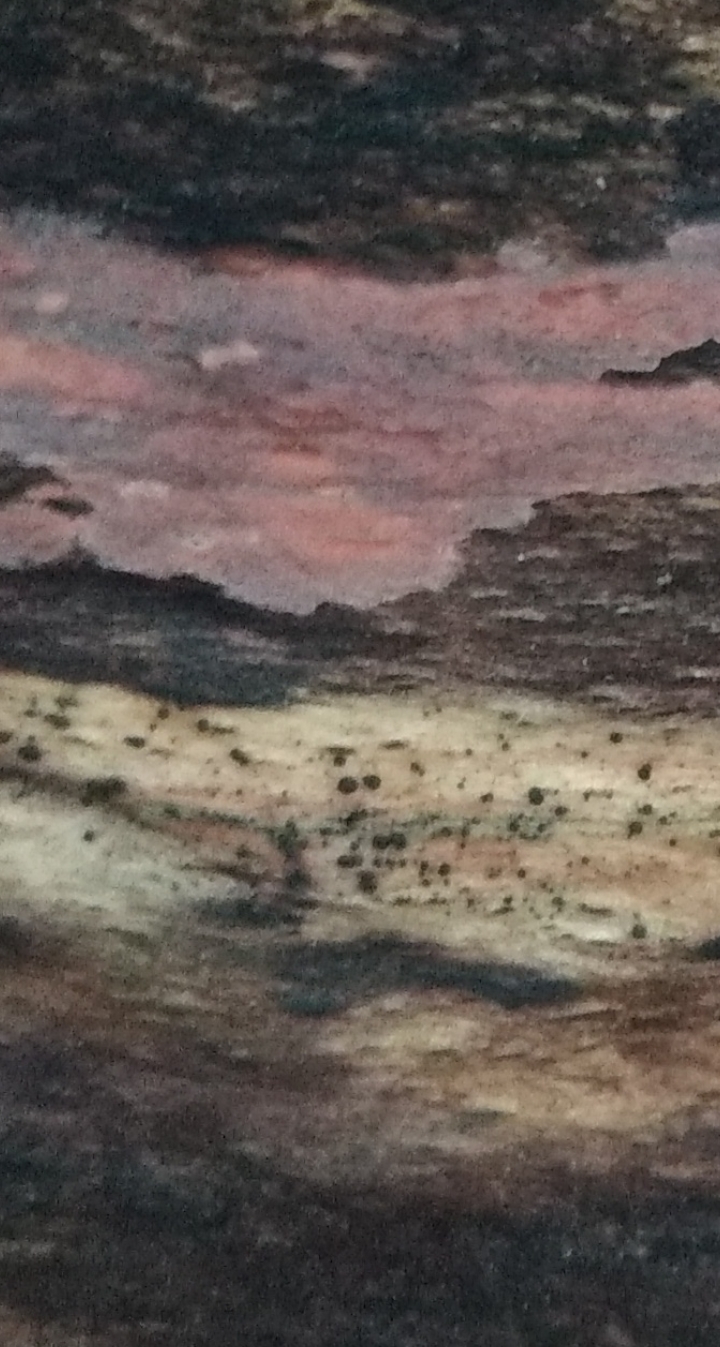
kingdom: Fungi
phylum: Basidiomycota
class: Agaricomycetes
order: Corticiales
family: Corticiaceae
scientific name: Corticiaceae
